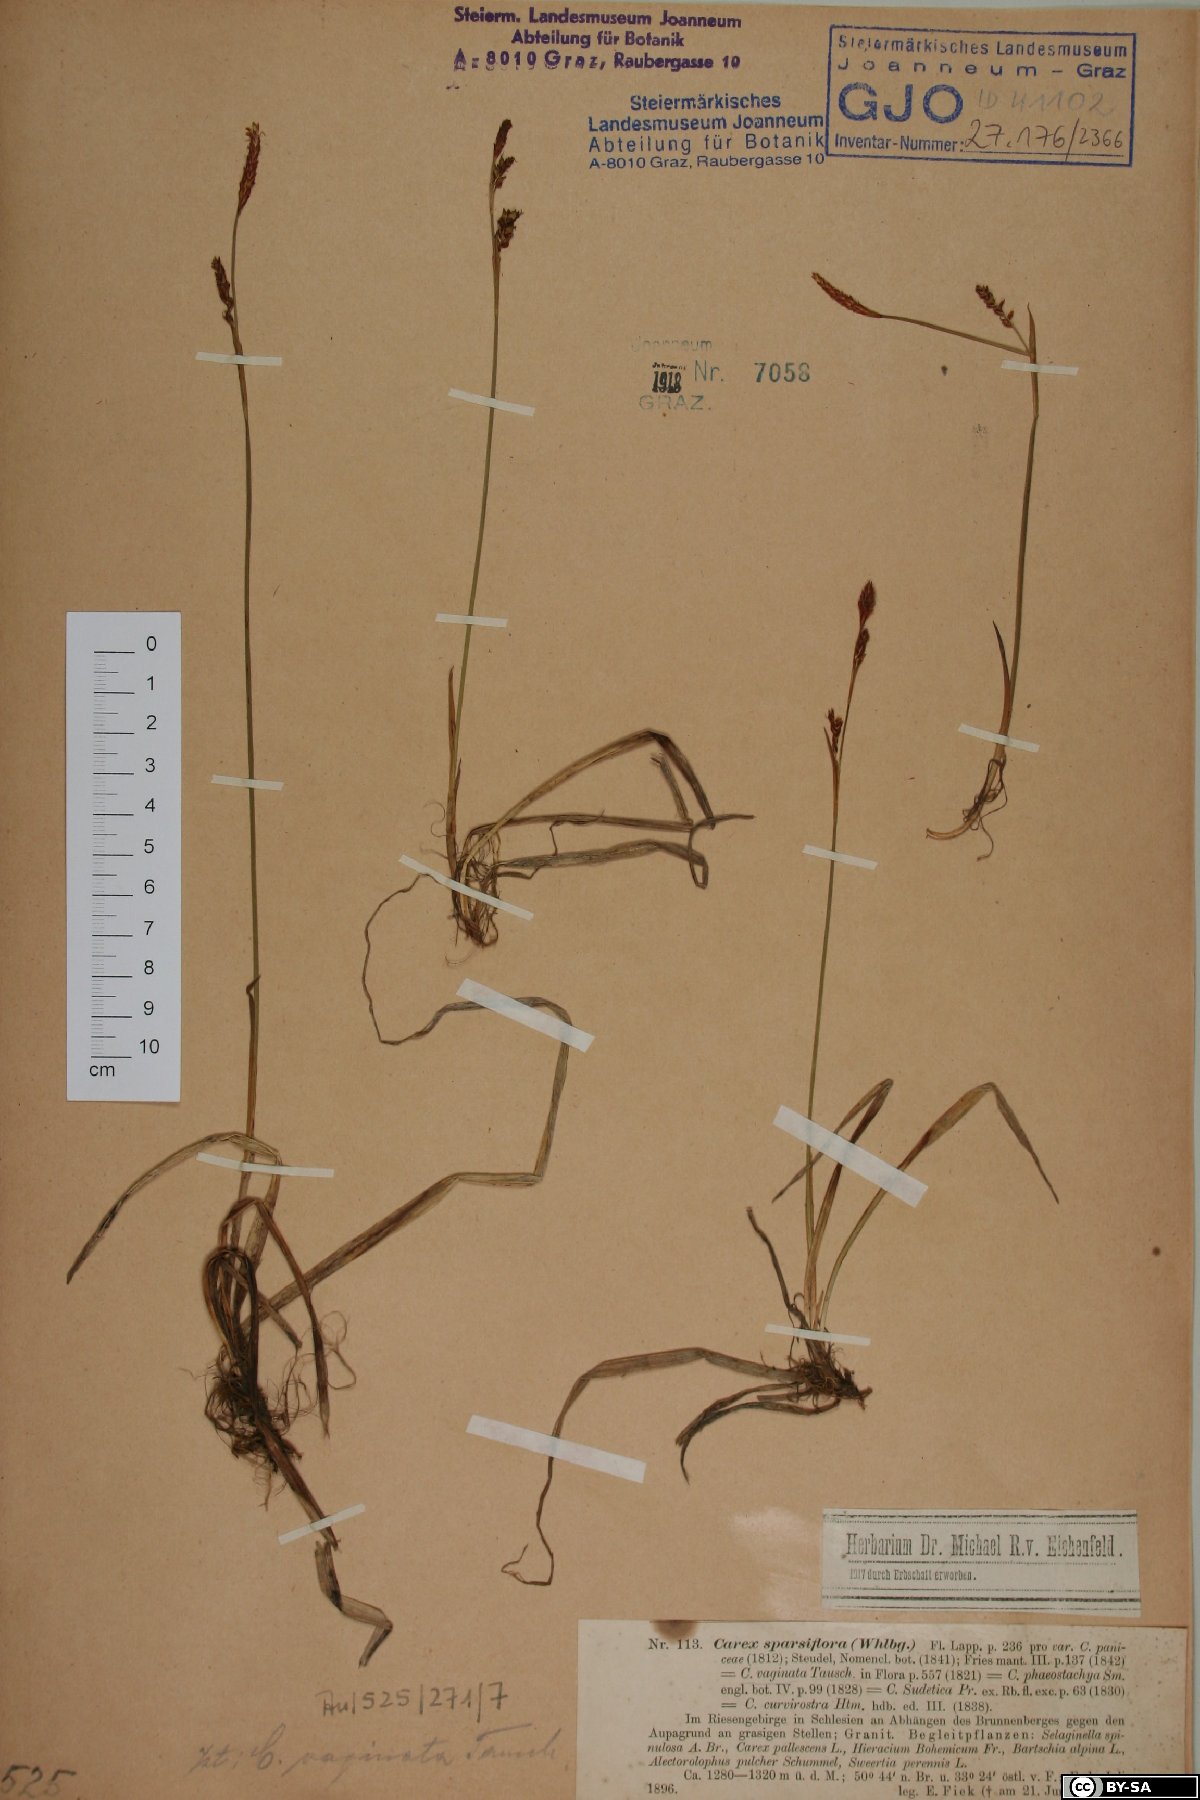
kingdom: Plantae
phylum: Tracheophyta
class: Liliopsida
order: Poales
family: Cyperaceae
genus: Carex
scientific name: Carex vaginata
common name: Sheathed sedge
